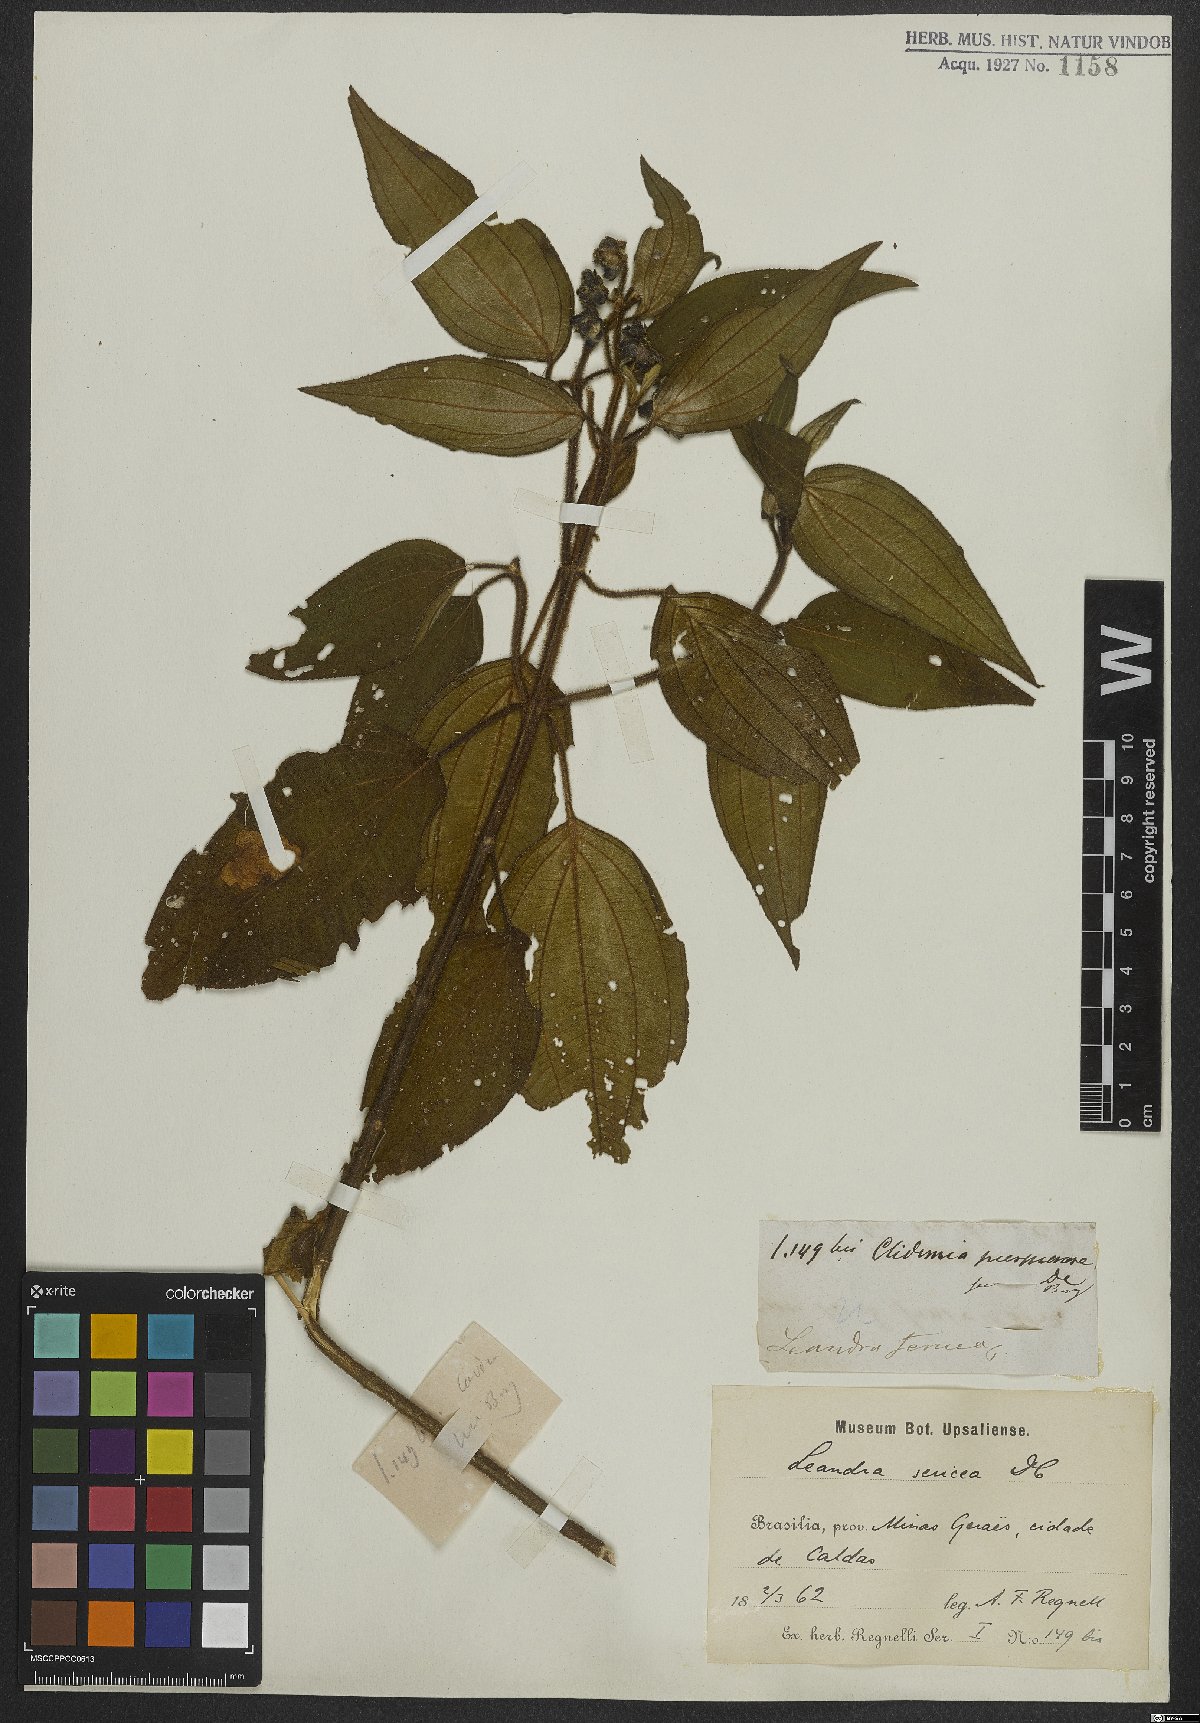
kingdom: Plantae
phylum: Tracheophyta
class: Magnoliopsida
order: Myrtales
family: Melastomataceae
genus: Miconia
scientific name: Miconia raddii
